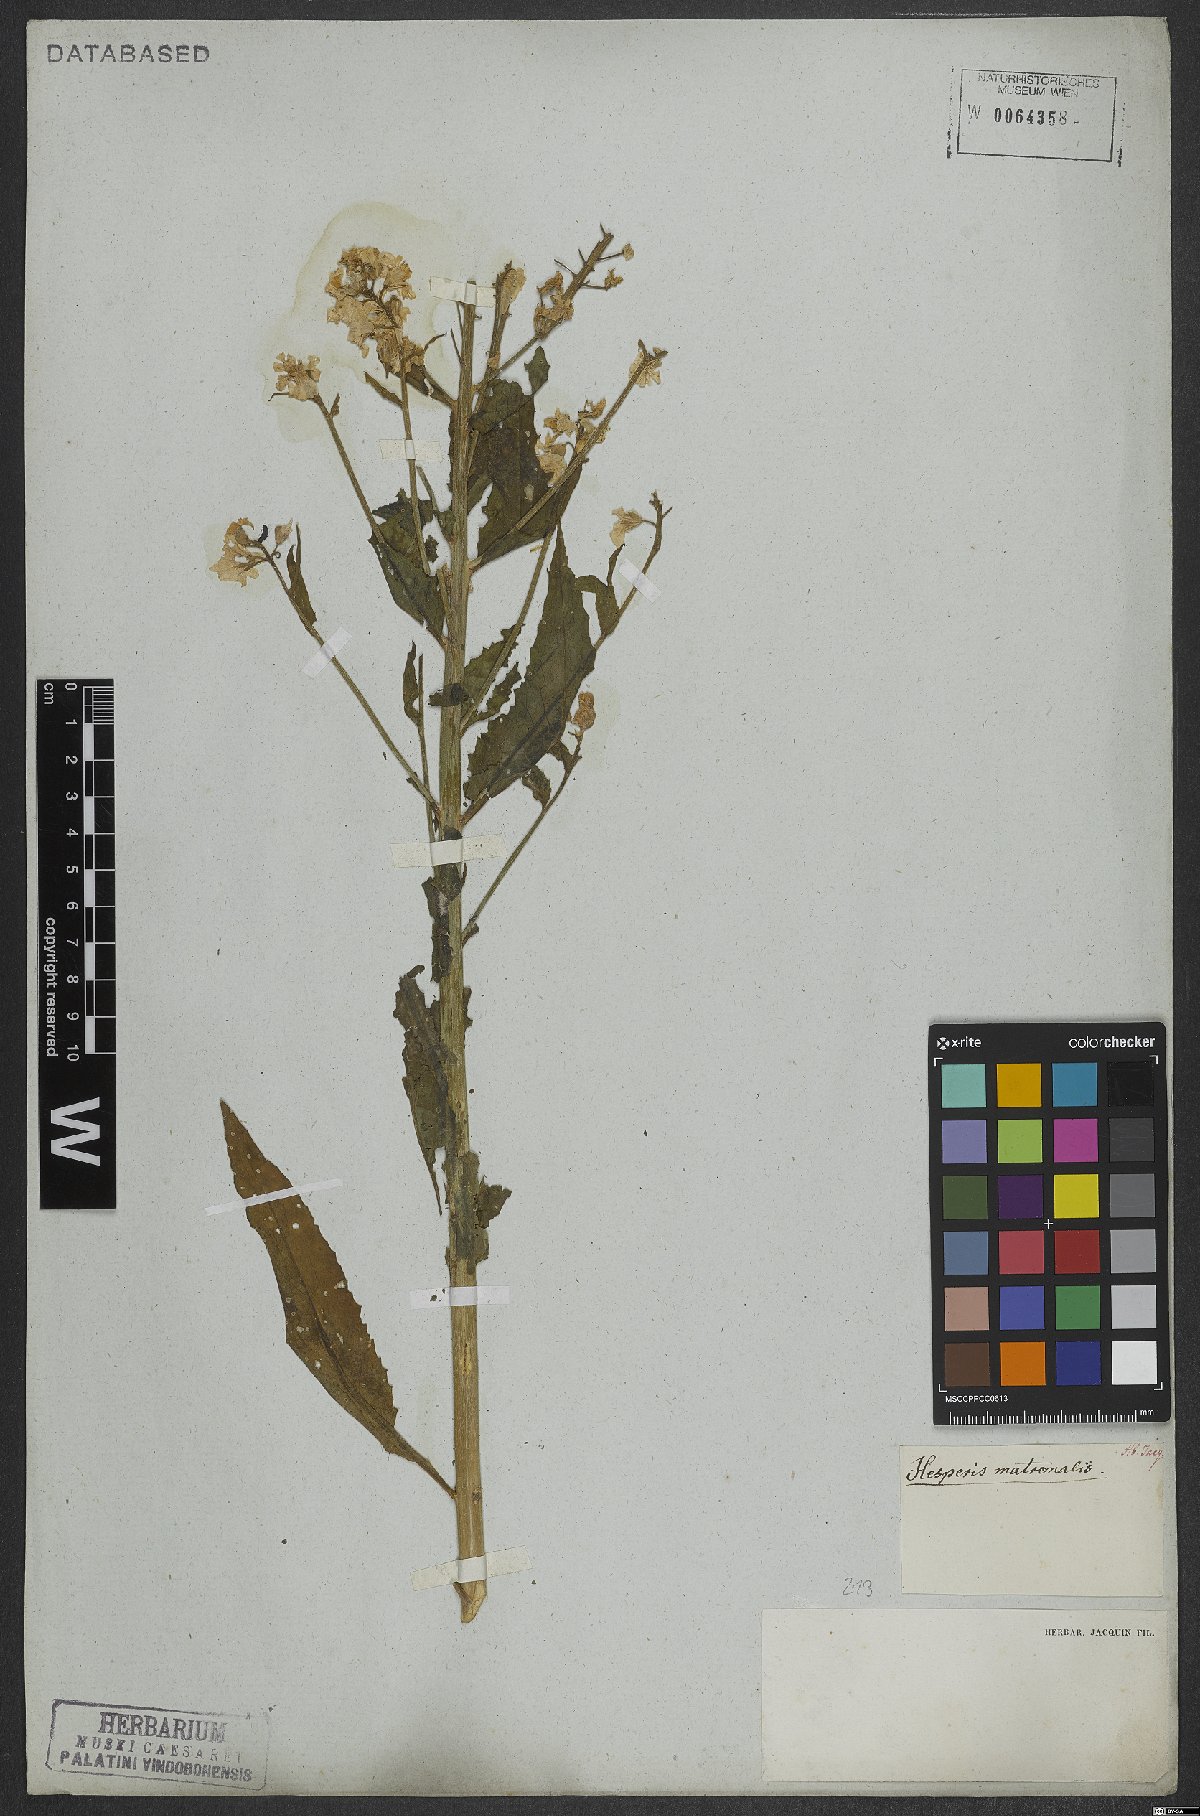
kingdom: Plantae
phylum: Tracheophyta
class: Magnoliopsida
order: Brassicales
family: Brassicaceae
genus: Hesperis
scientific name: Hesperis matronalis
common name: Dame's-violet
